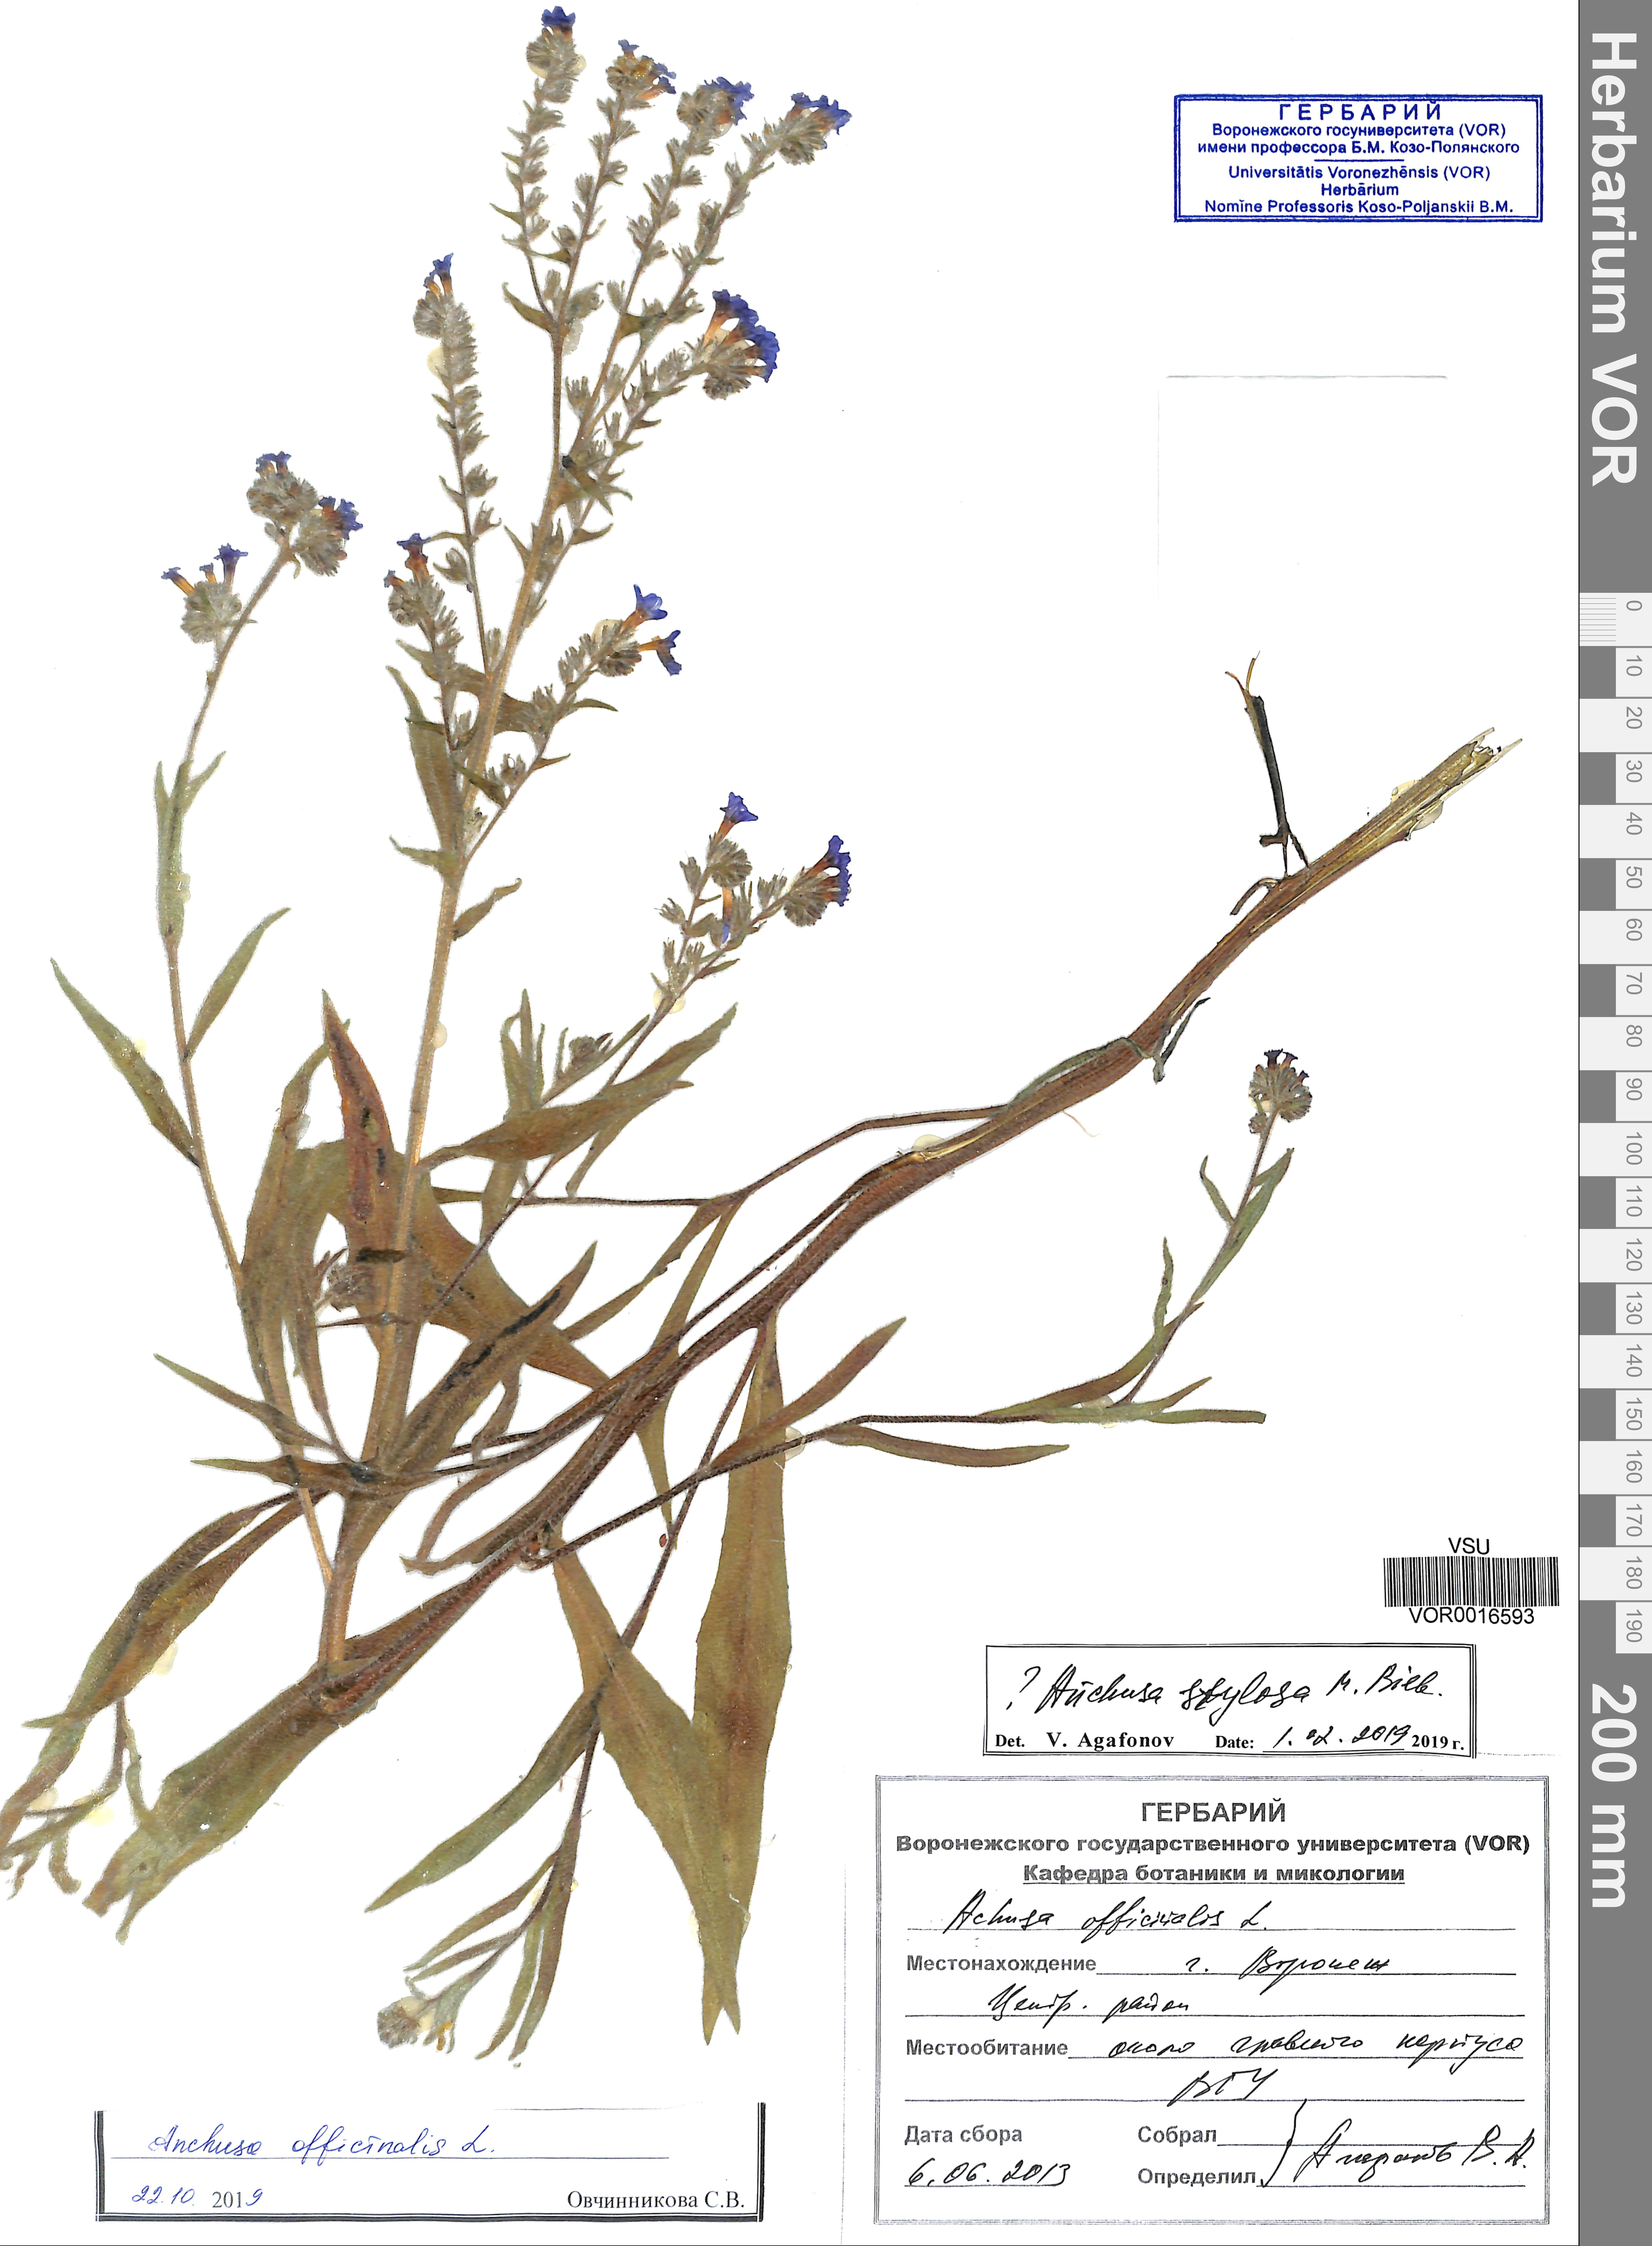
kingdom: Plantae
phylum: Tracheophyta
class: Magnoliopsida
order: Boraginales
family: Boraginaceae
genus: Anchusa
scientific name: Anchusa officinalis
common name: Alkanet
